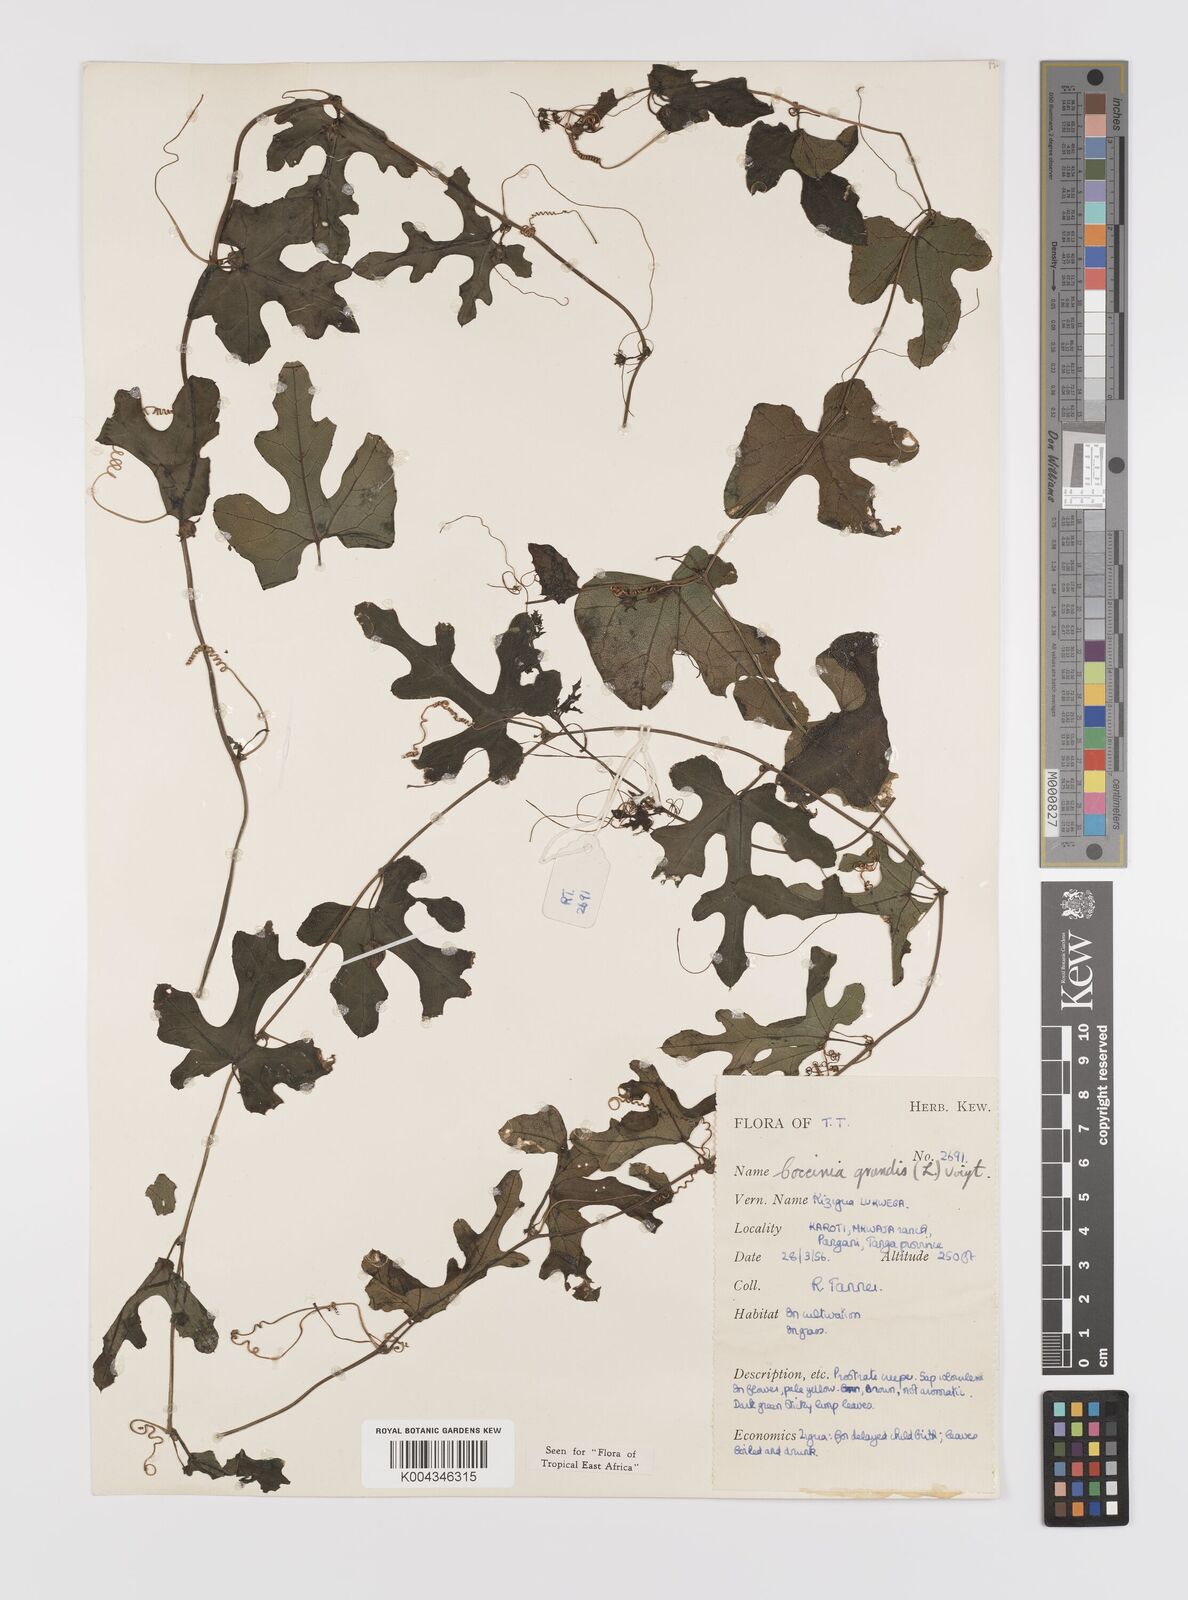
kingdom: Plantae
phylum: Tracheophyta
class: Magnoliopsida
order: Cucurbitales
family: Cucurbitaceae
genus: Coccinia
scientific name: Coccinia grandis
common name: Ivy gourd
